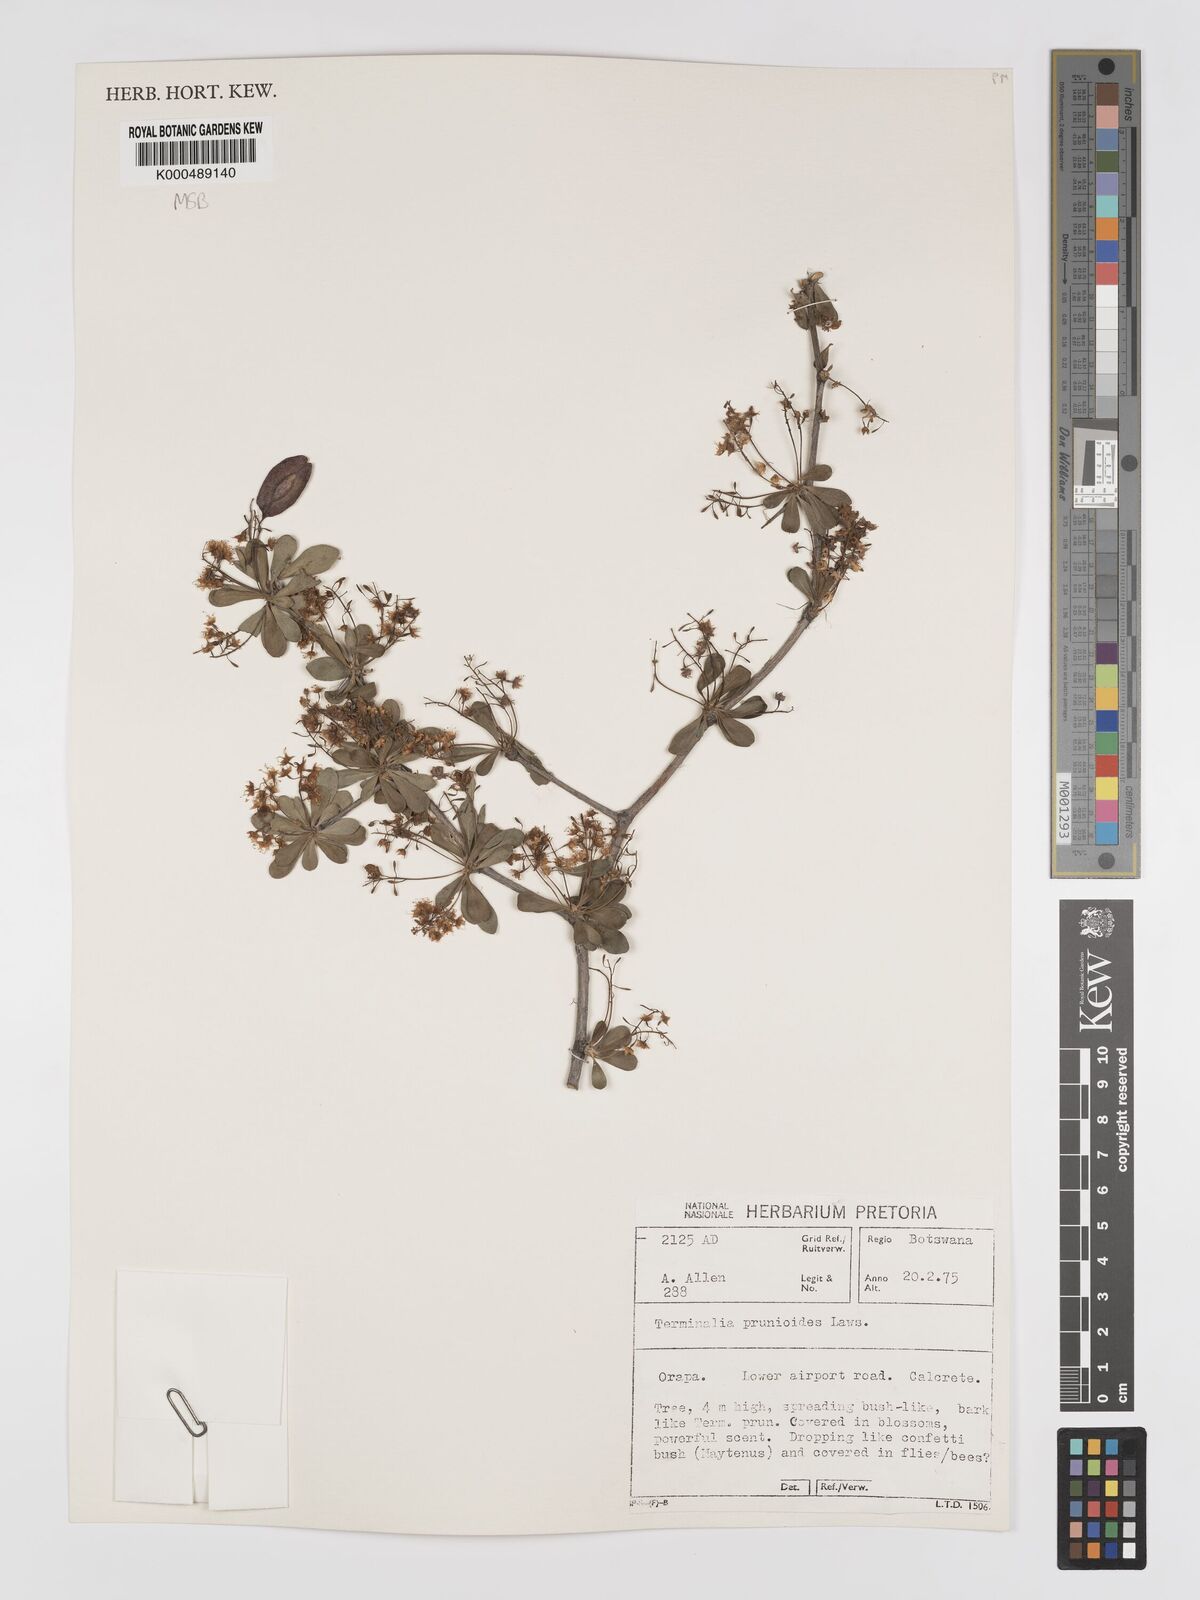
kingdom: Plantae
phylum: Tracheophyta
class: Magnoliopsida
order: Myrtales
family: Combretaceae
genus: Terminalia
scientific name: Terminalia prunioides
